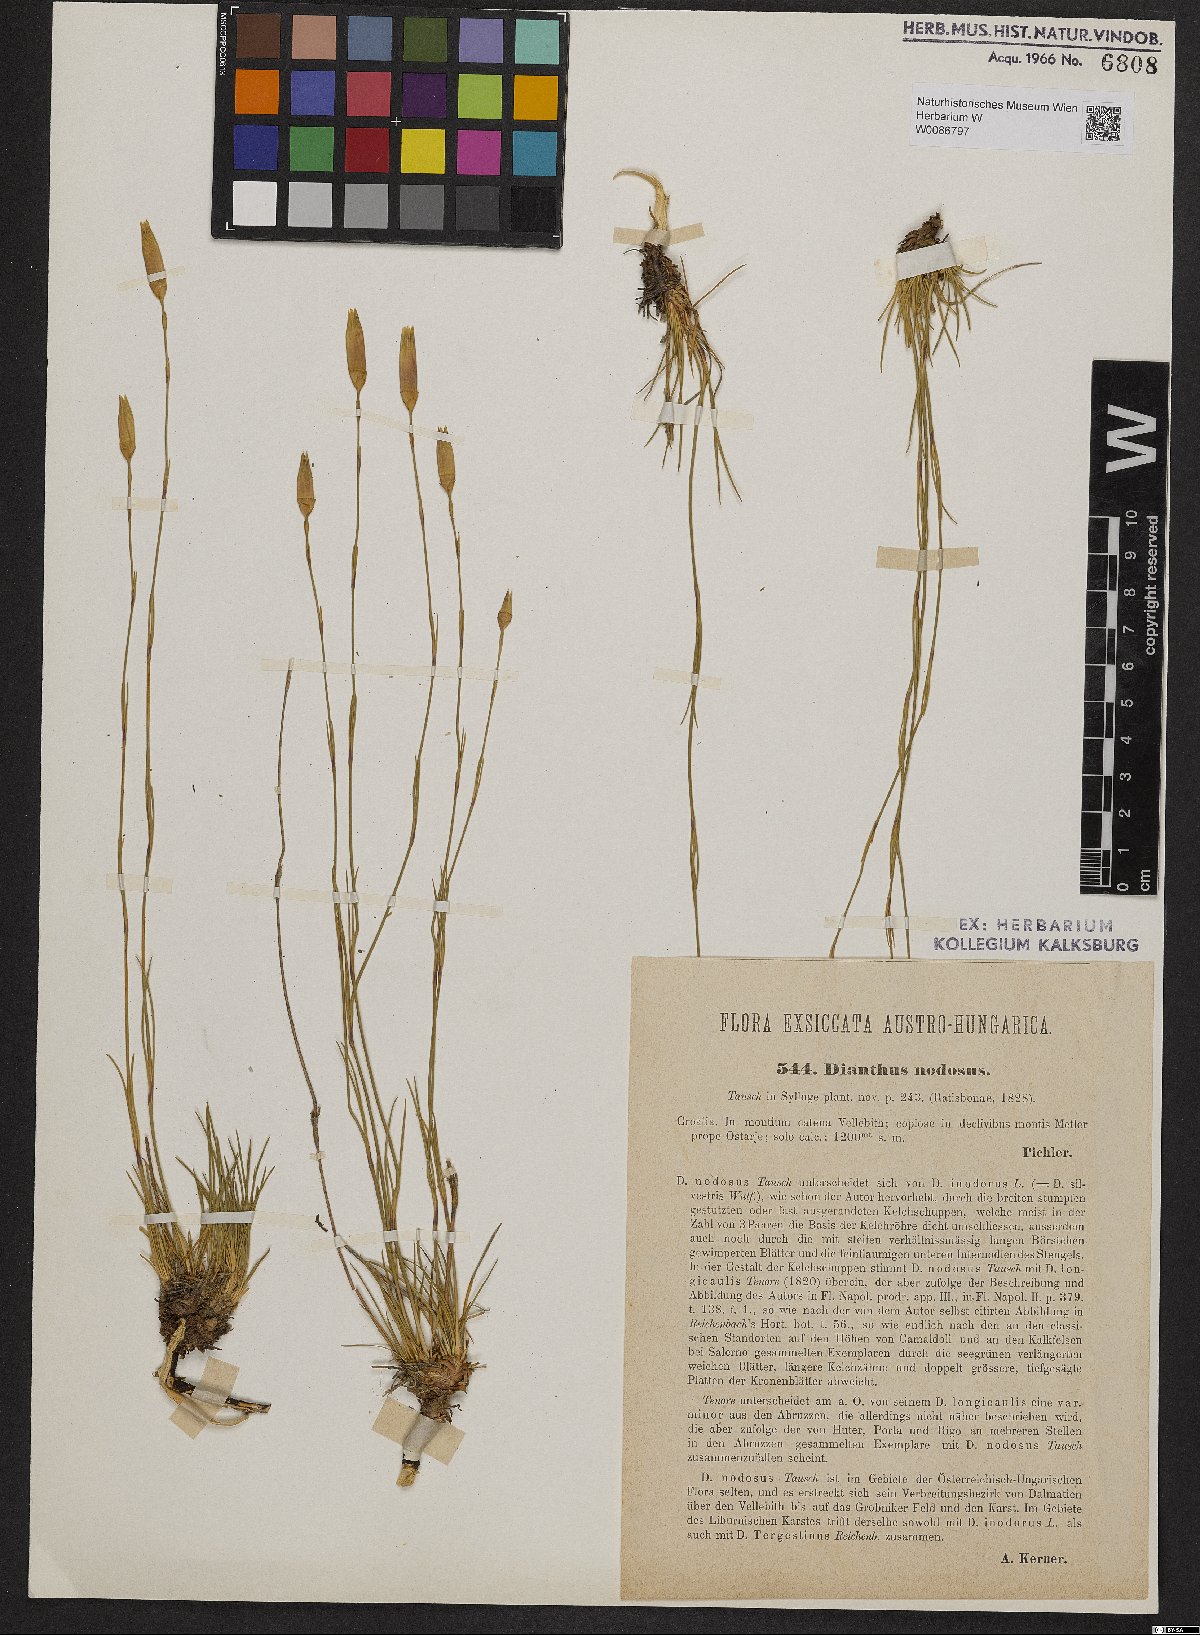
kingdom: Plantae
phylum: Tracheophyta
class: Magnoliopsida
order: Caryophyllales
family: Caryophyllaceae
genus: Dianthus
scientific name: Dianthus sylvestris
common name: Wood pink
